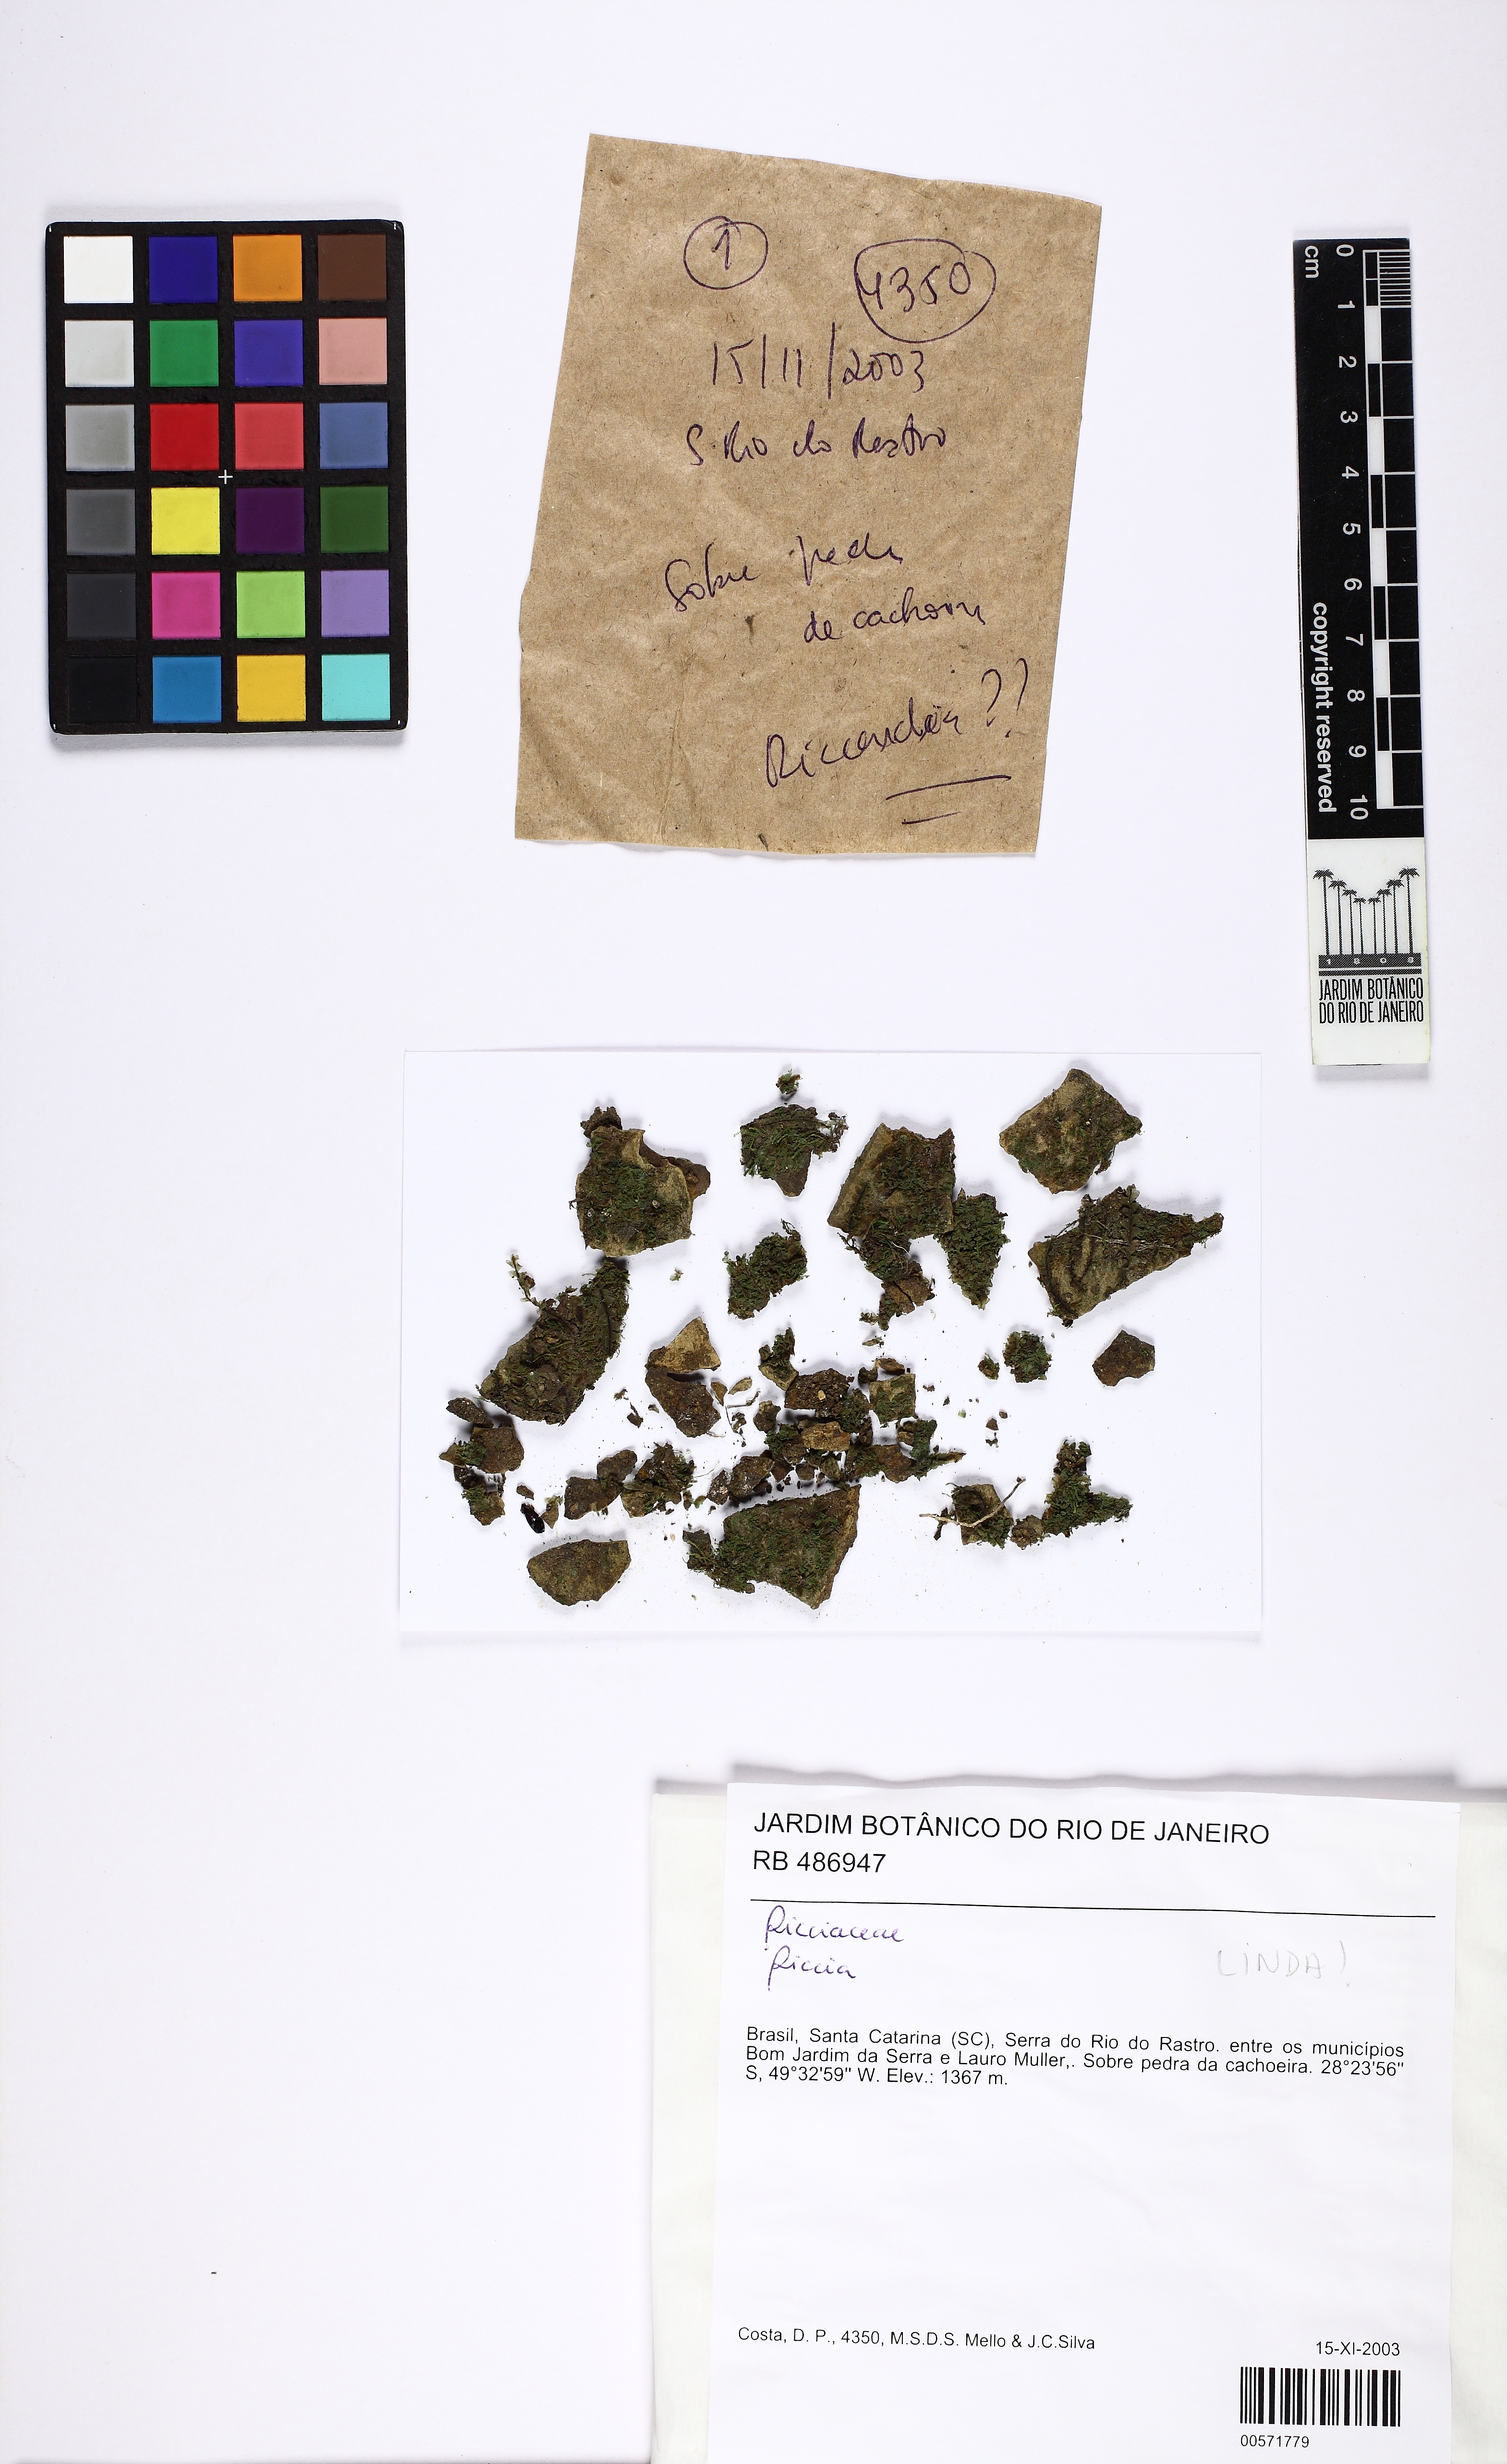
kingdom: Plantae
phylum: Marchantiophyta
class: Marchantiopsida
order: Marchantiales
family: Ricciaceae
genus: Riccia
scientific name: Riccia
